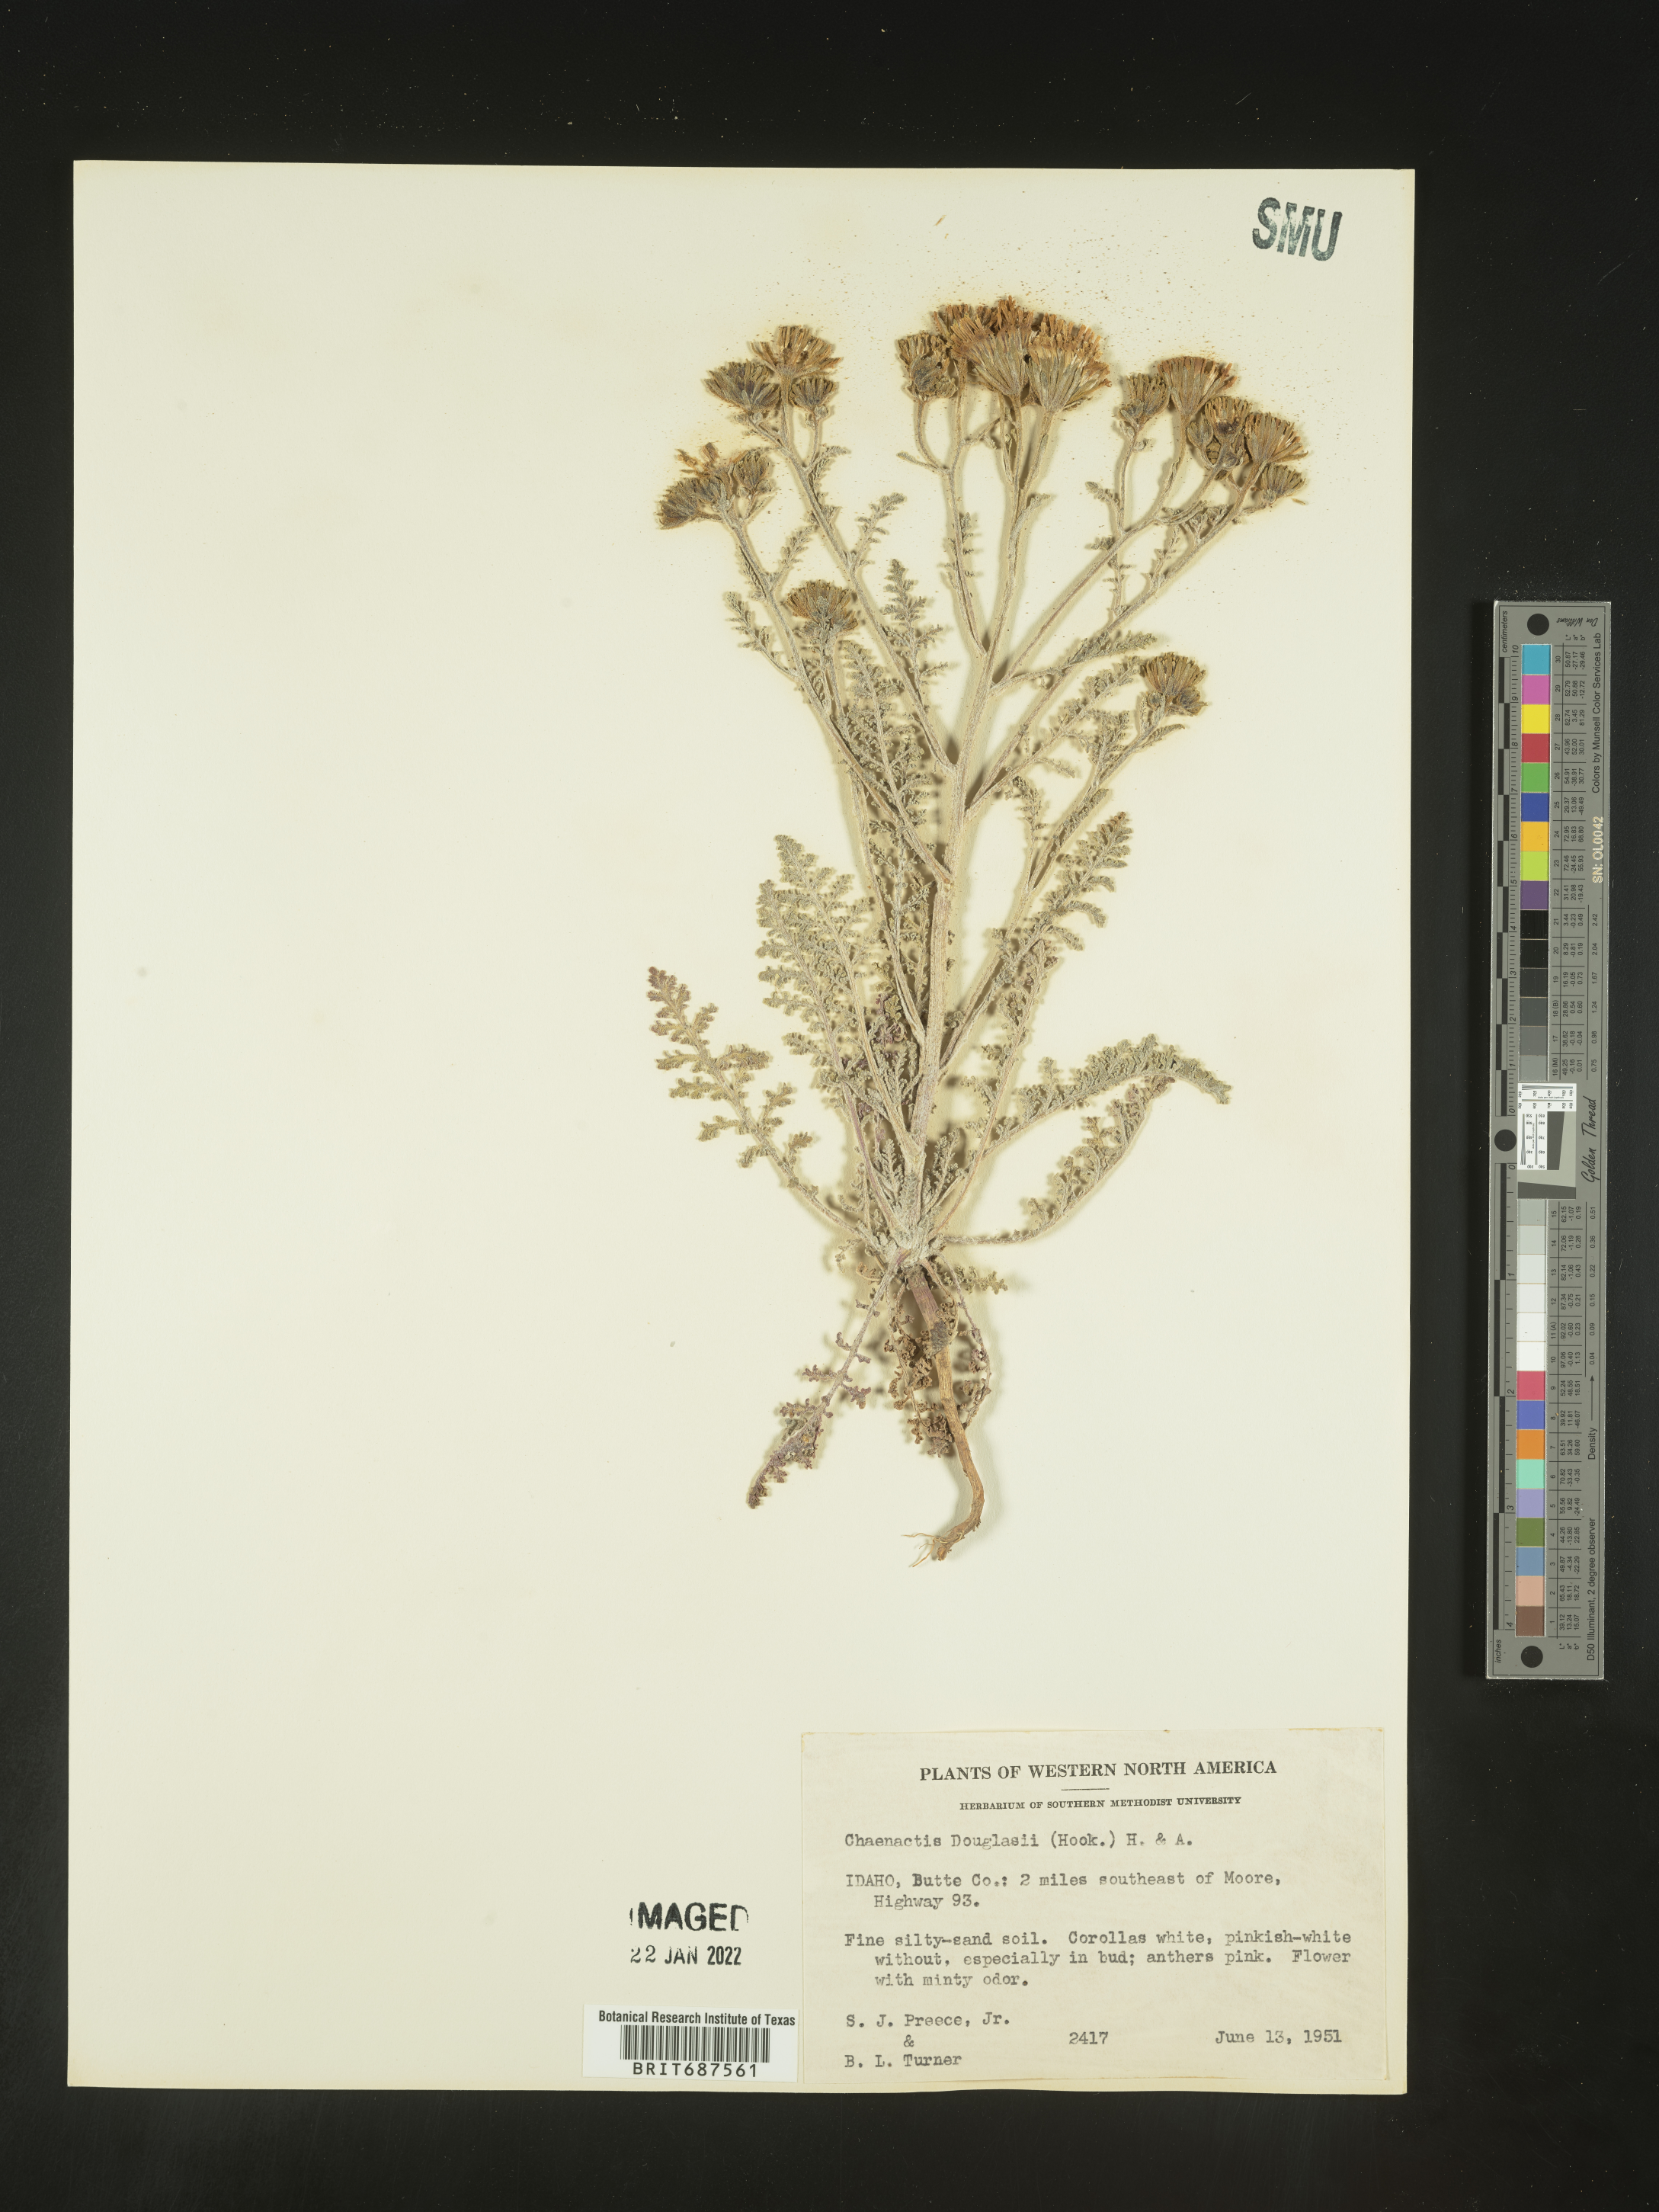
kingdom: Plantae
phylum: Tracheophyta
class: Magnoliopsida
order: Asterales
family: Asteraceae
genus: Chaenactis
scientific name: Chaenactis douglasii
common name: Hoary pincushion
